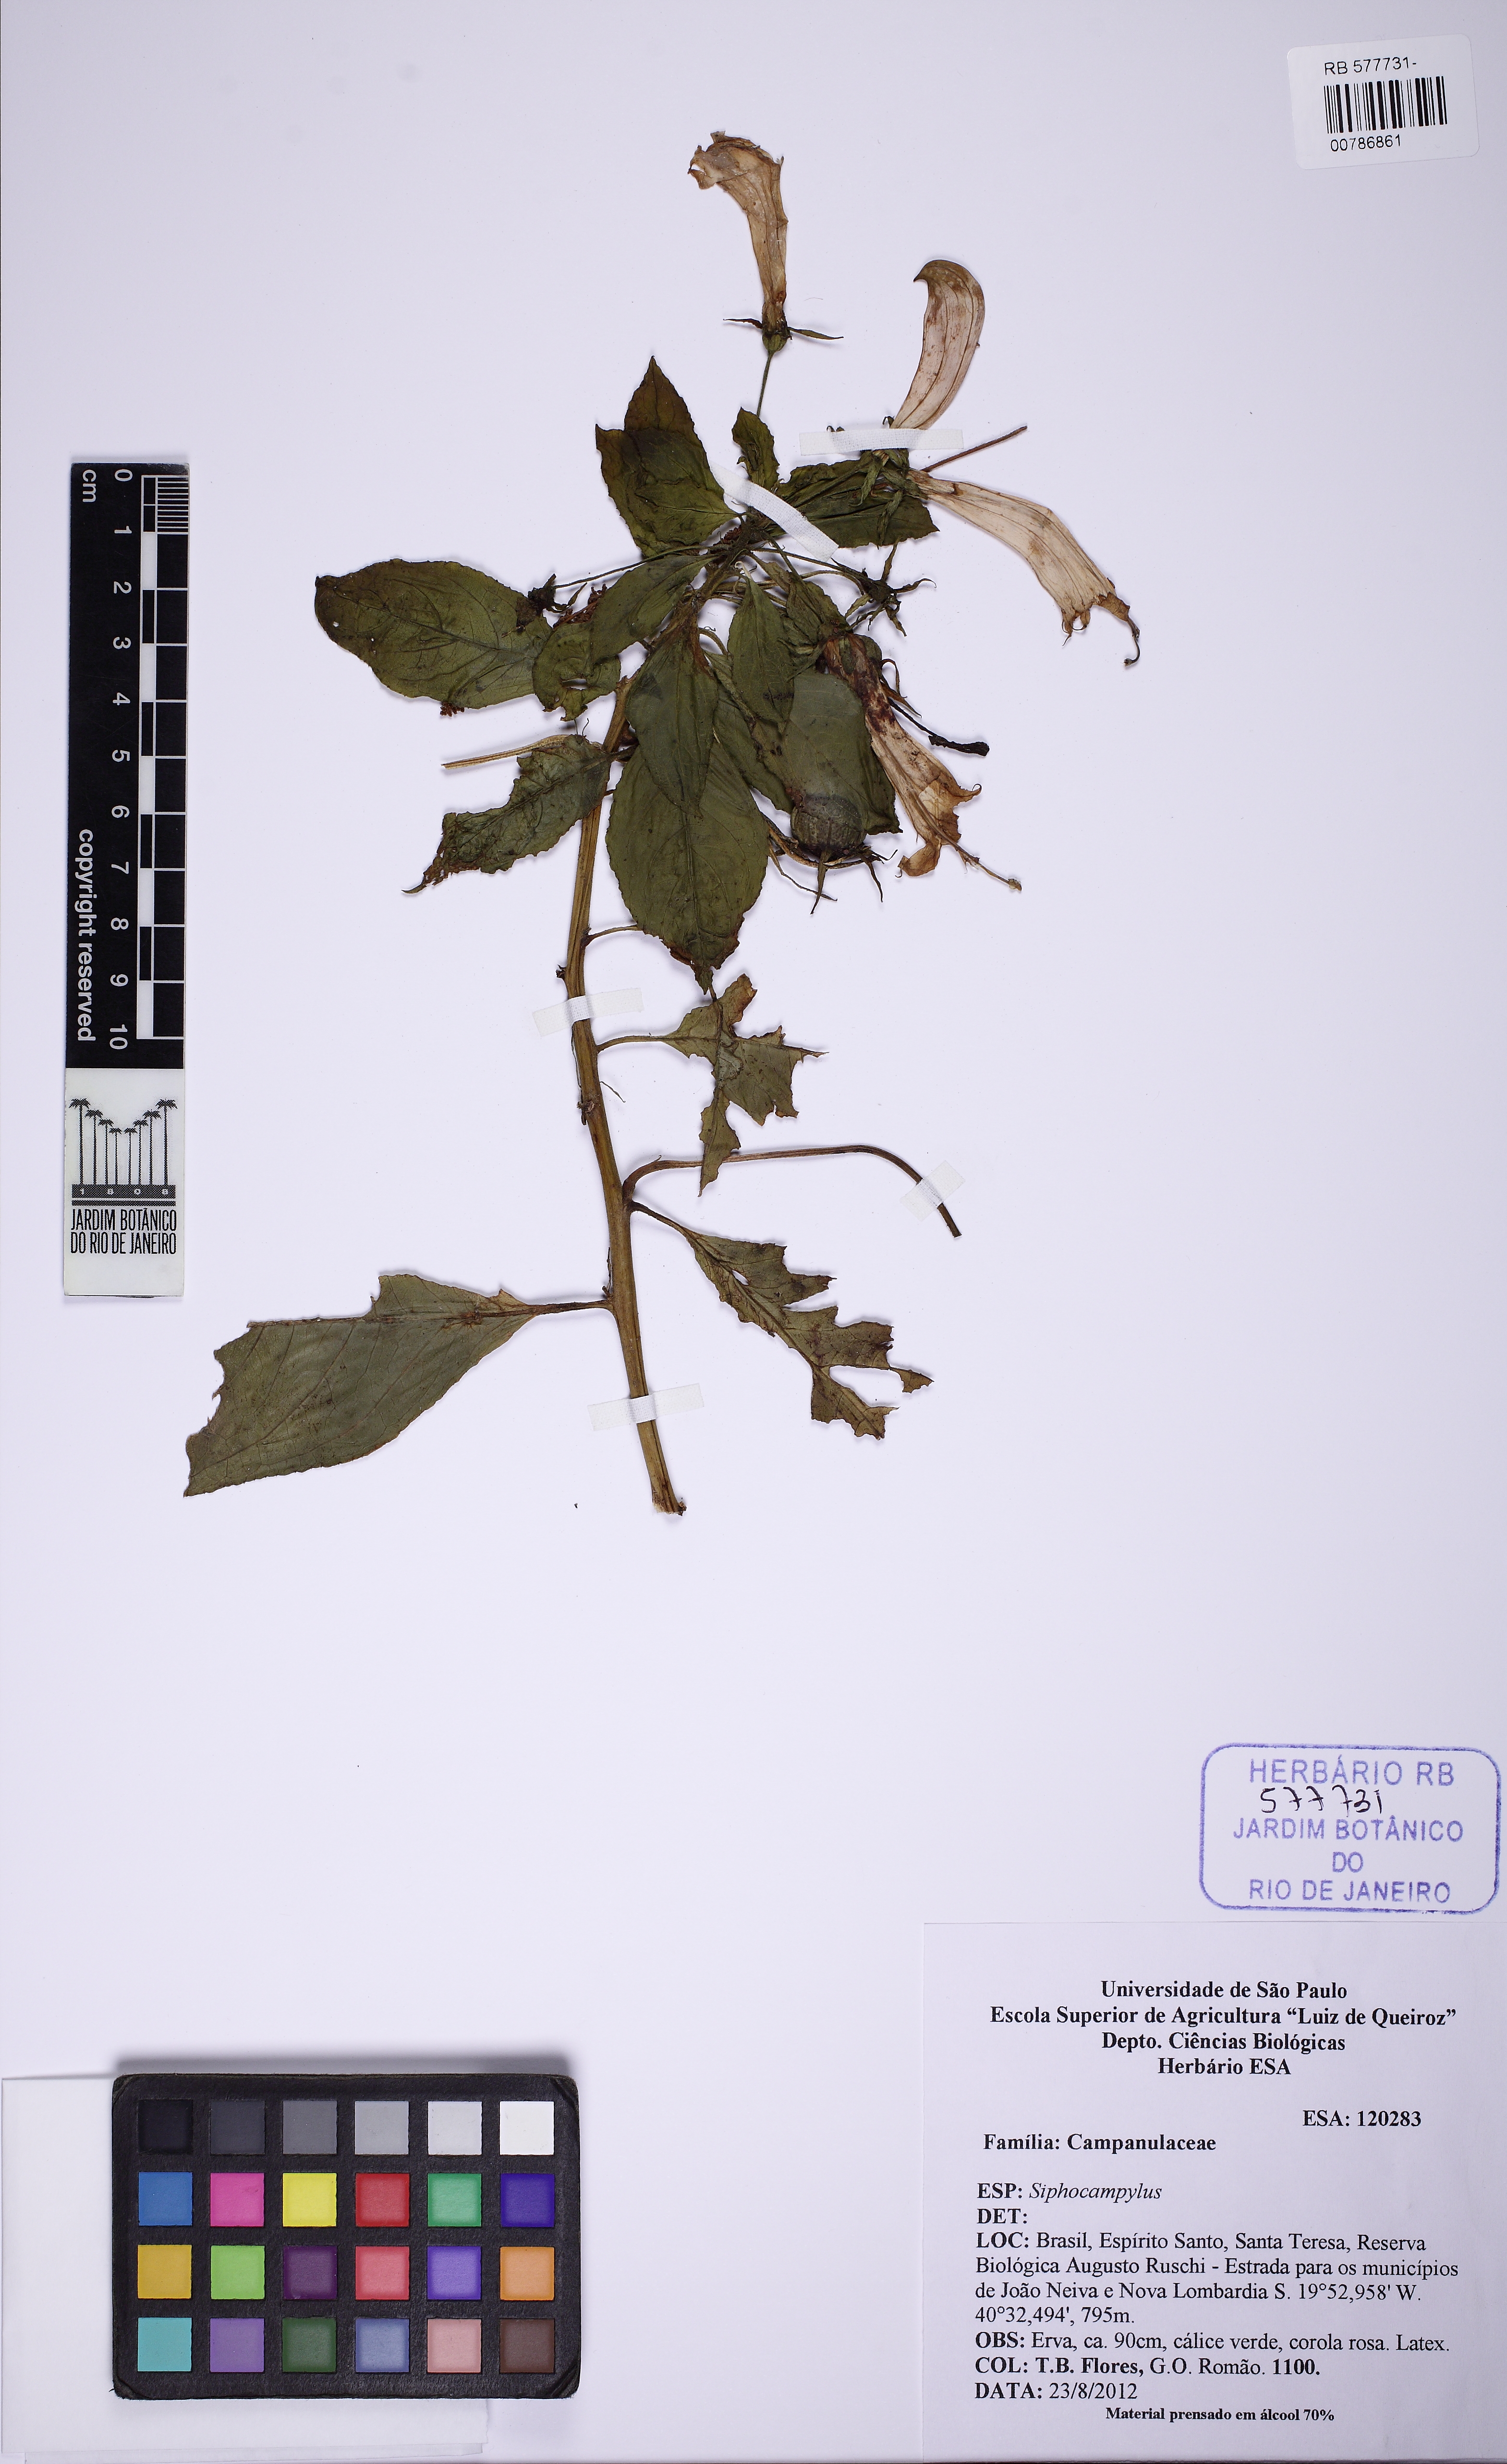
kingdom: Plantae
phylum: Tracheophyta
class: Magnoliopsida
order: Asterales
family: Campanulaceae
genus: Centropogon
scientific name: Centropogon cornutus
